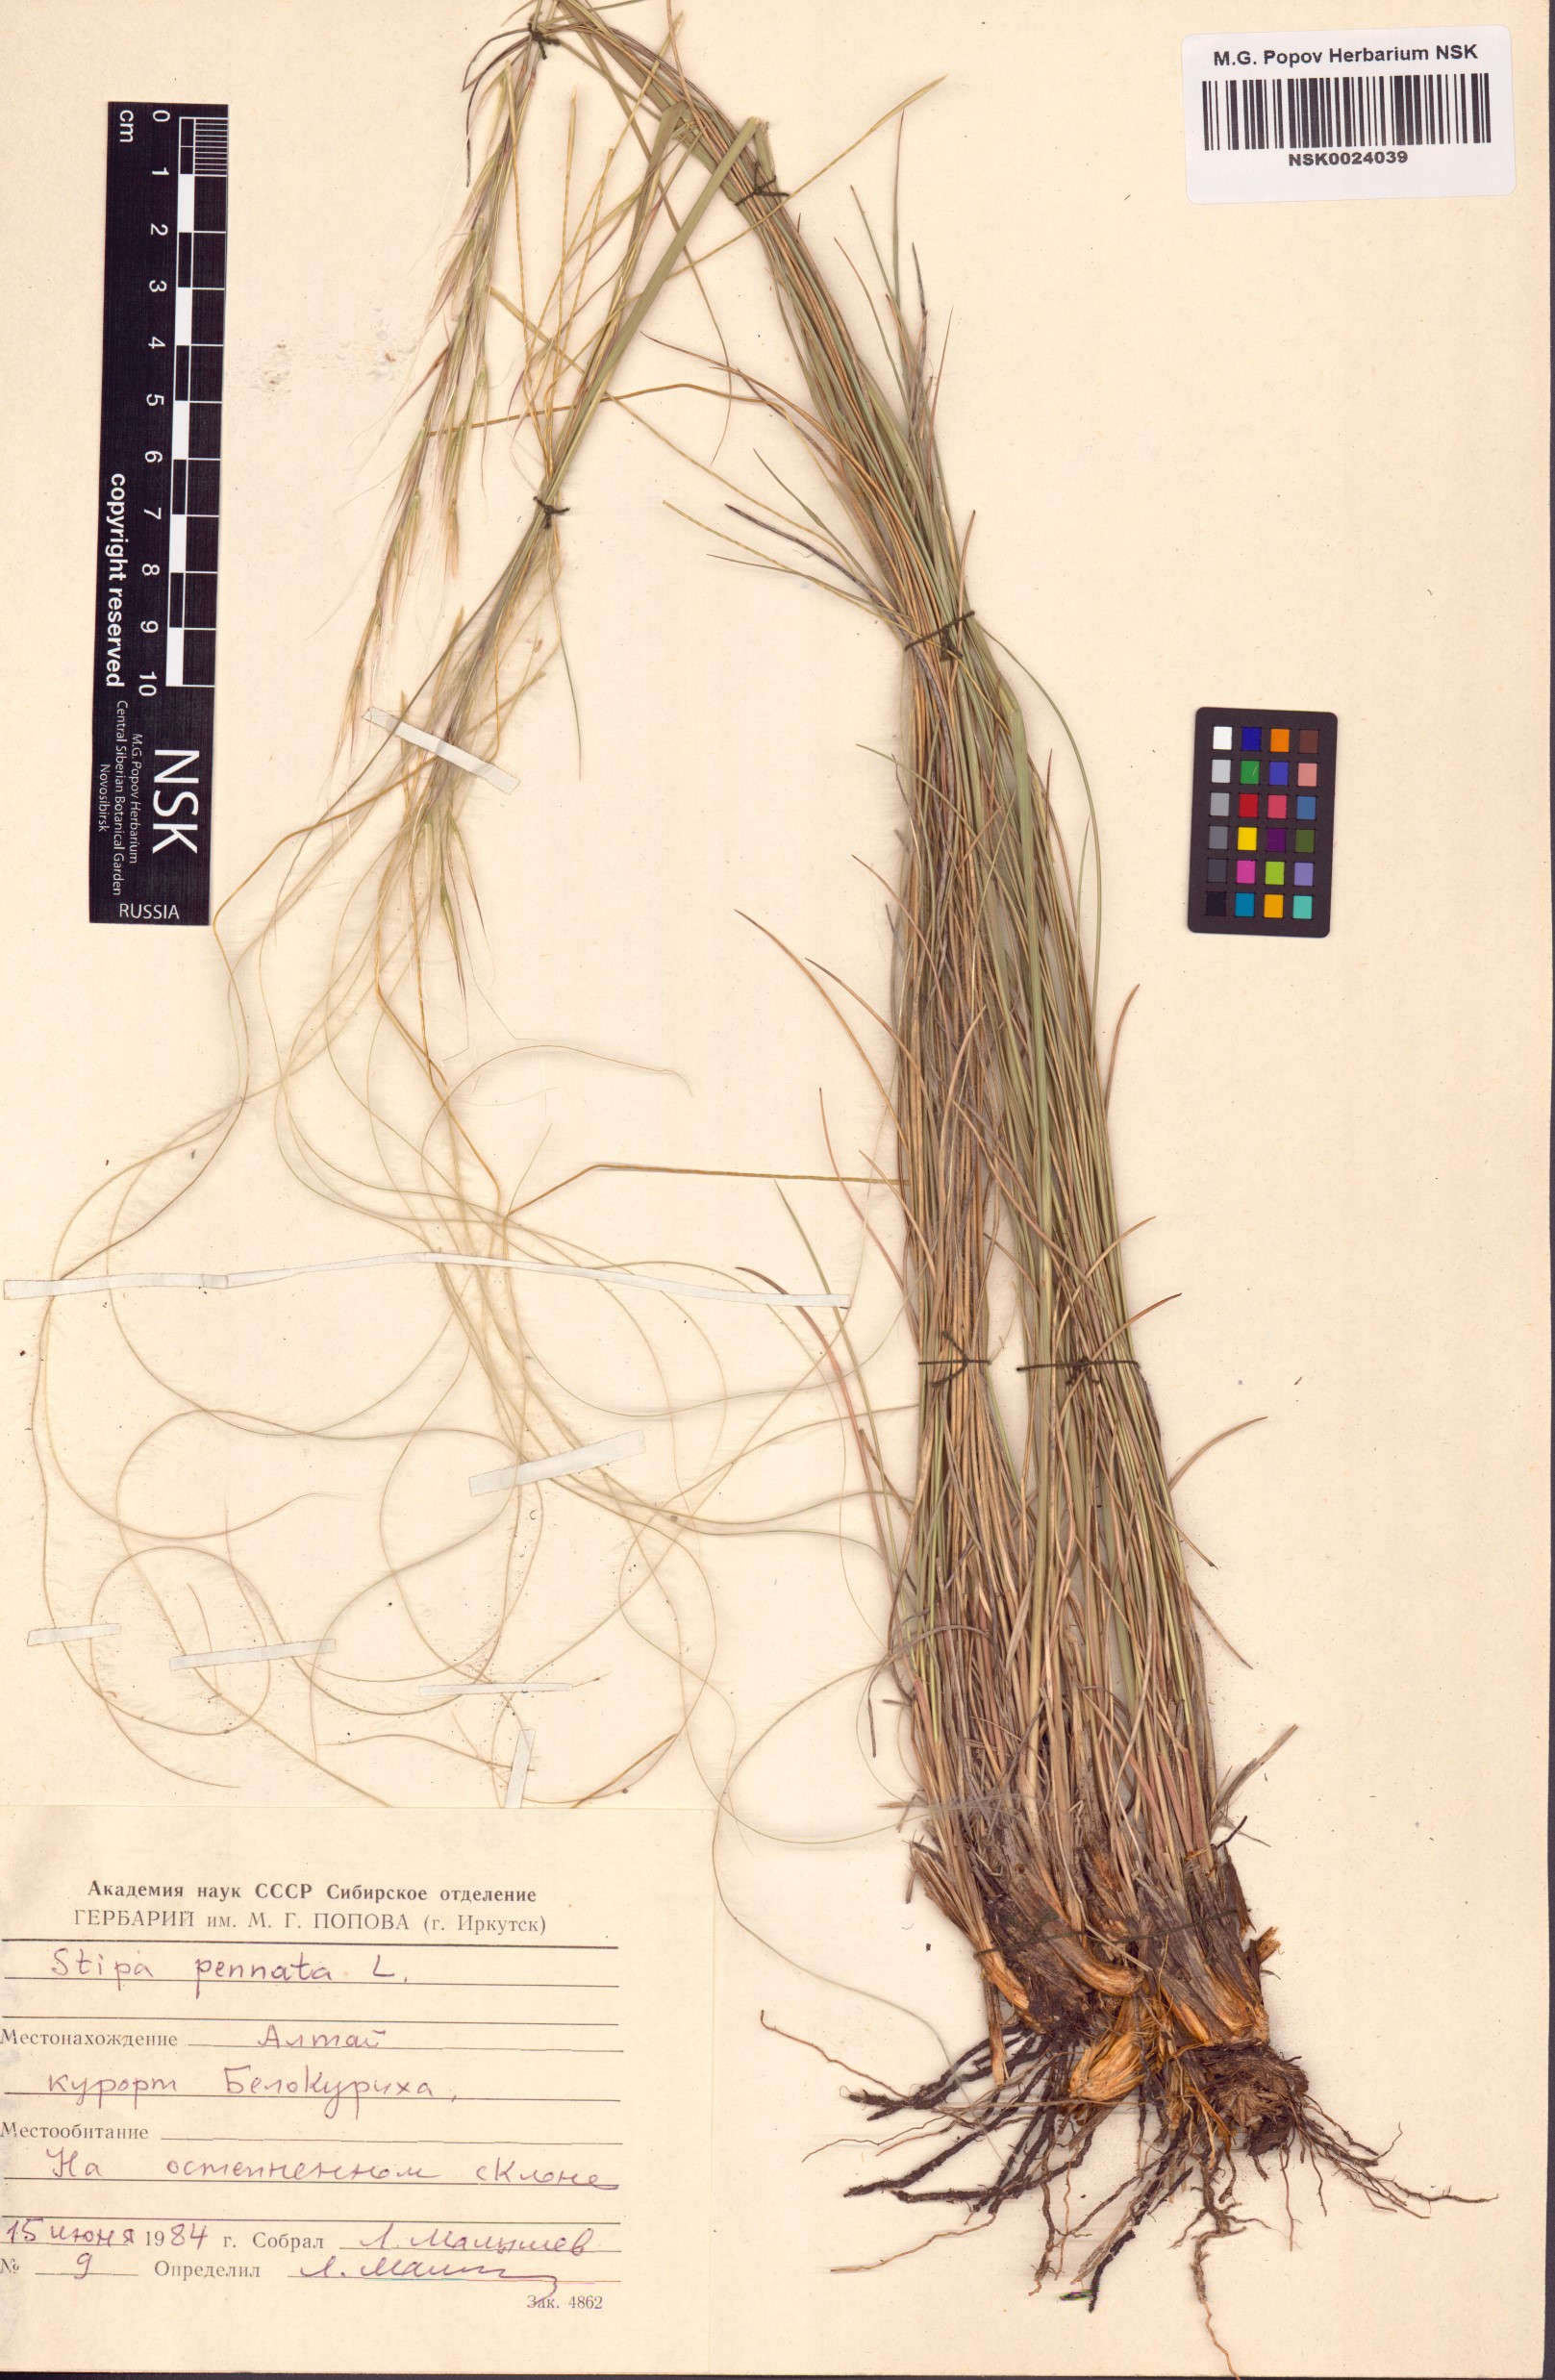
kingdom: Plantae
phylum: Tracheophyta
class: Liliopsida
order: Poales
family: Poaceae
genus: Stipa
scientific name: Stipa pennata
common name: European feather grass
